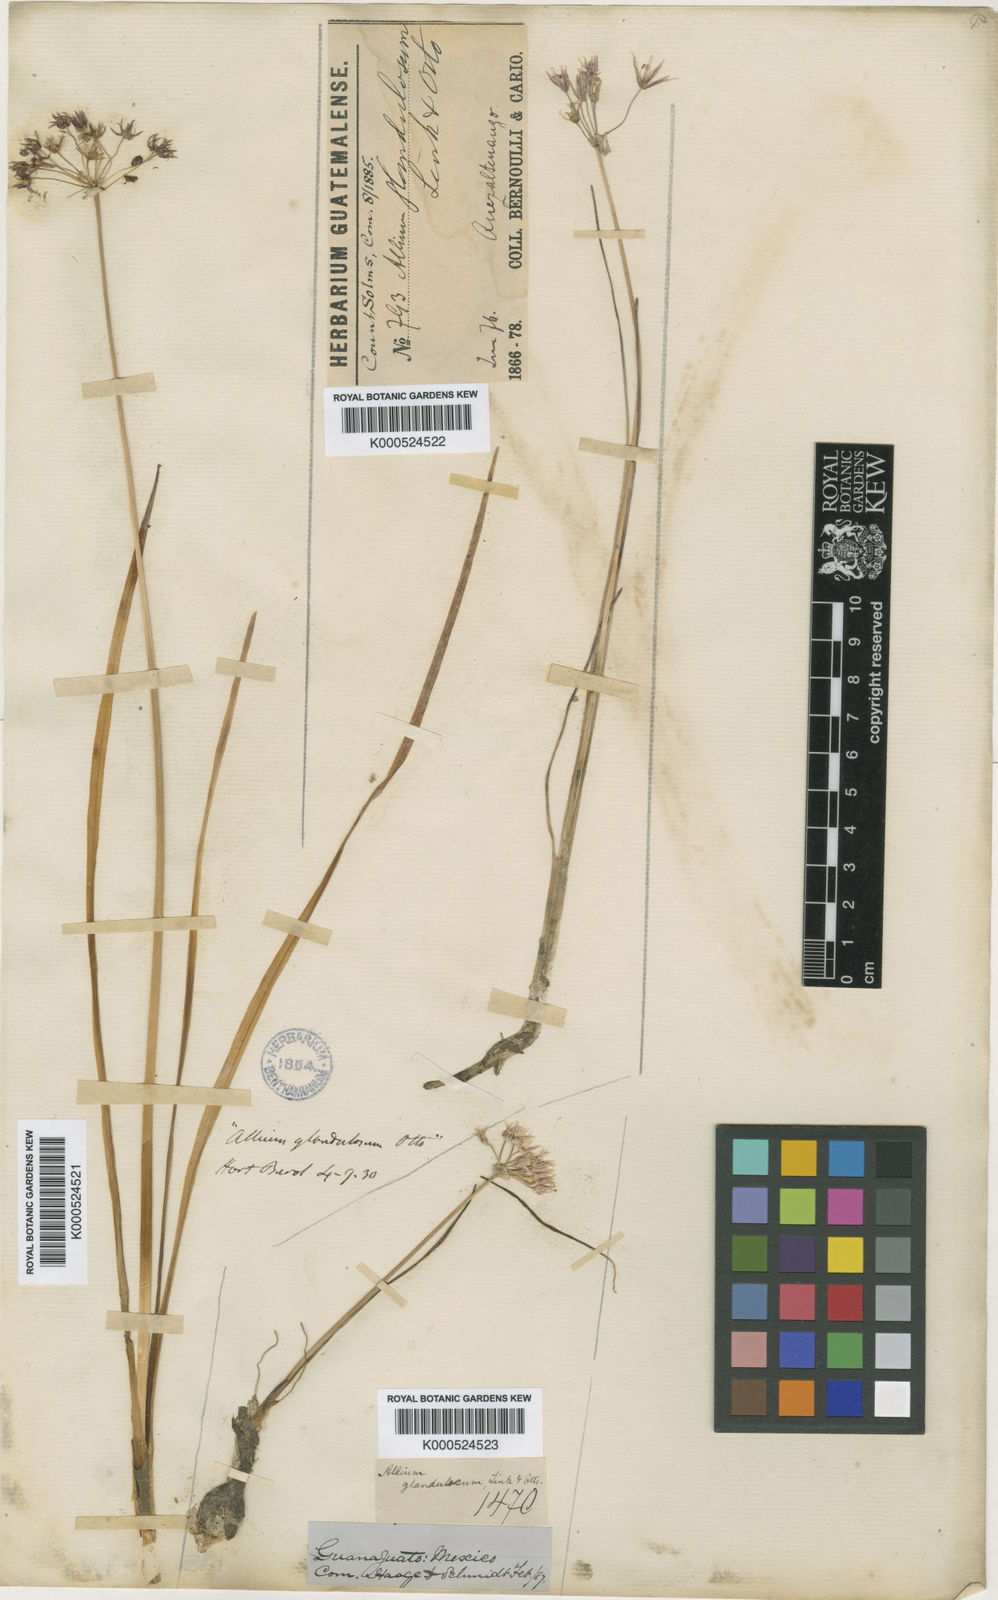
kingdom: Plantae
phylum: Tracheophyta
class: Liliopsida
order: Asparagales
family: Amaryllidaceae
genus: Allium
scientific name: Allium glandulosum
